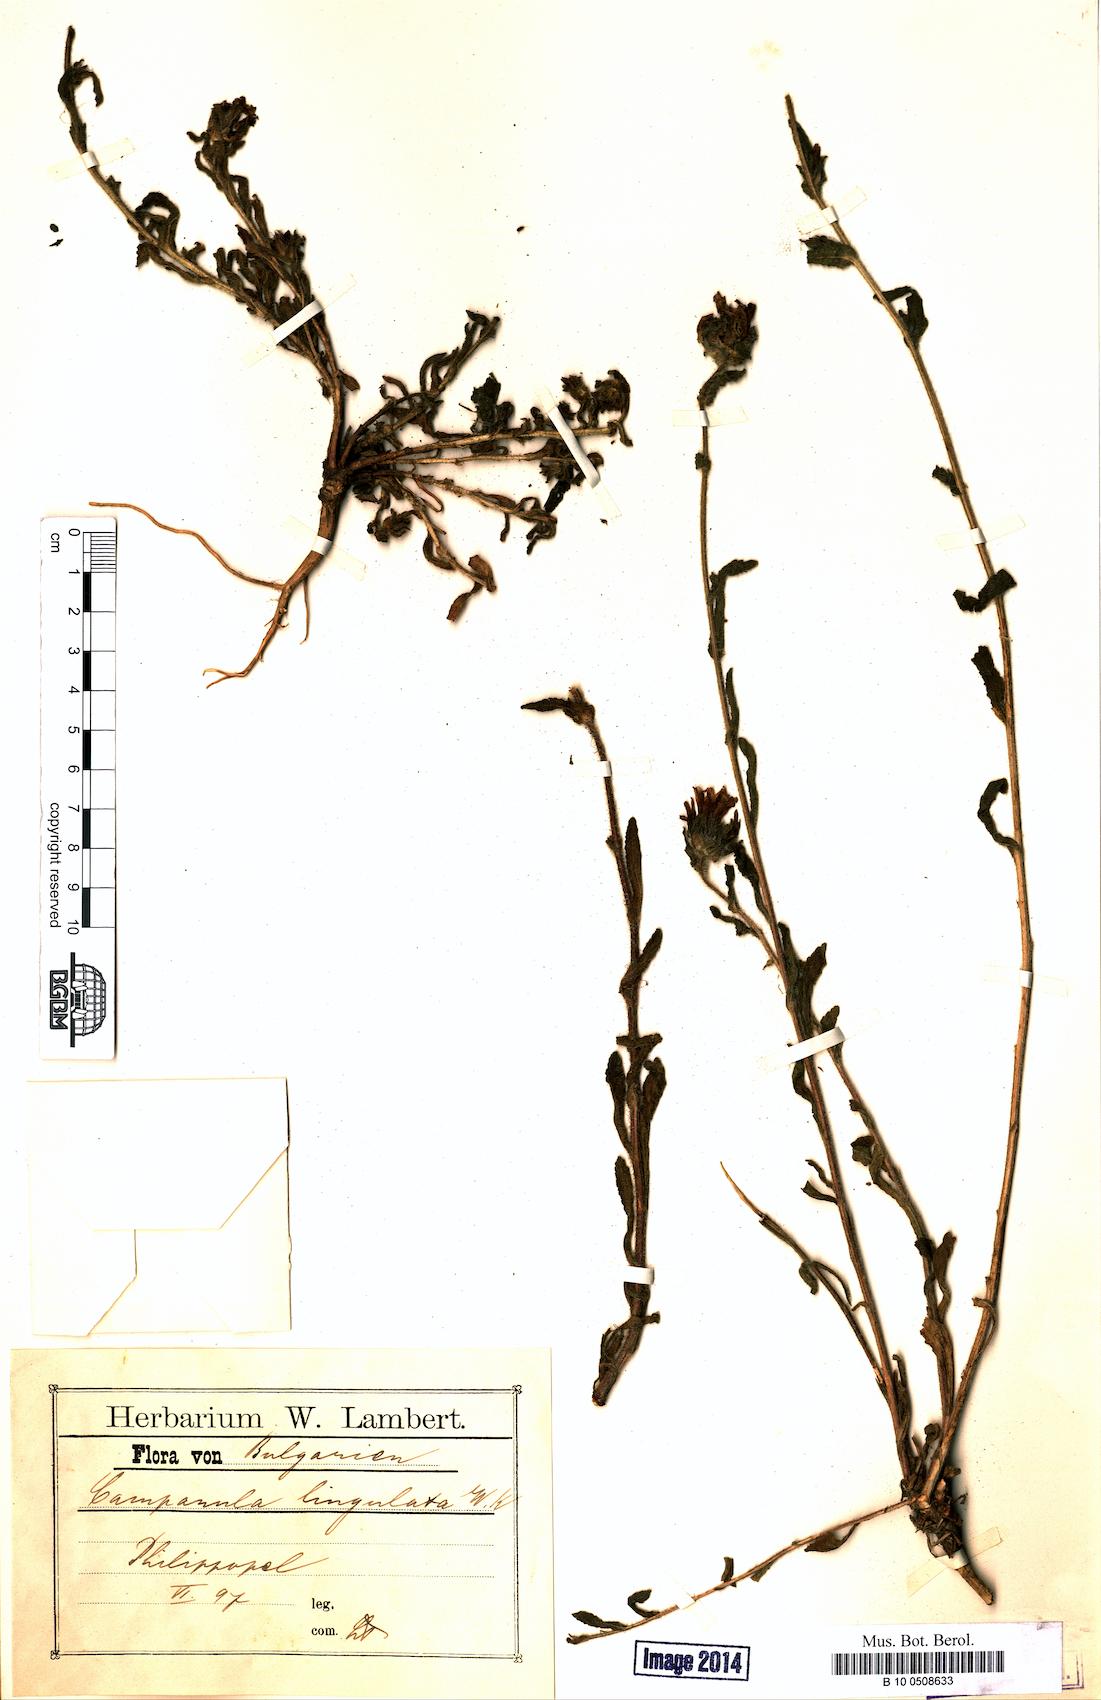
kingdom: Plantae
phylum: Tracheophyta
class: Magnoliopsida
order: Asterales
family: Campanulaceae
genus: Campanula
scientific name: Campanula lingulata
